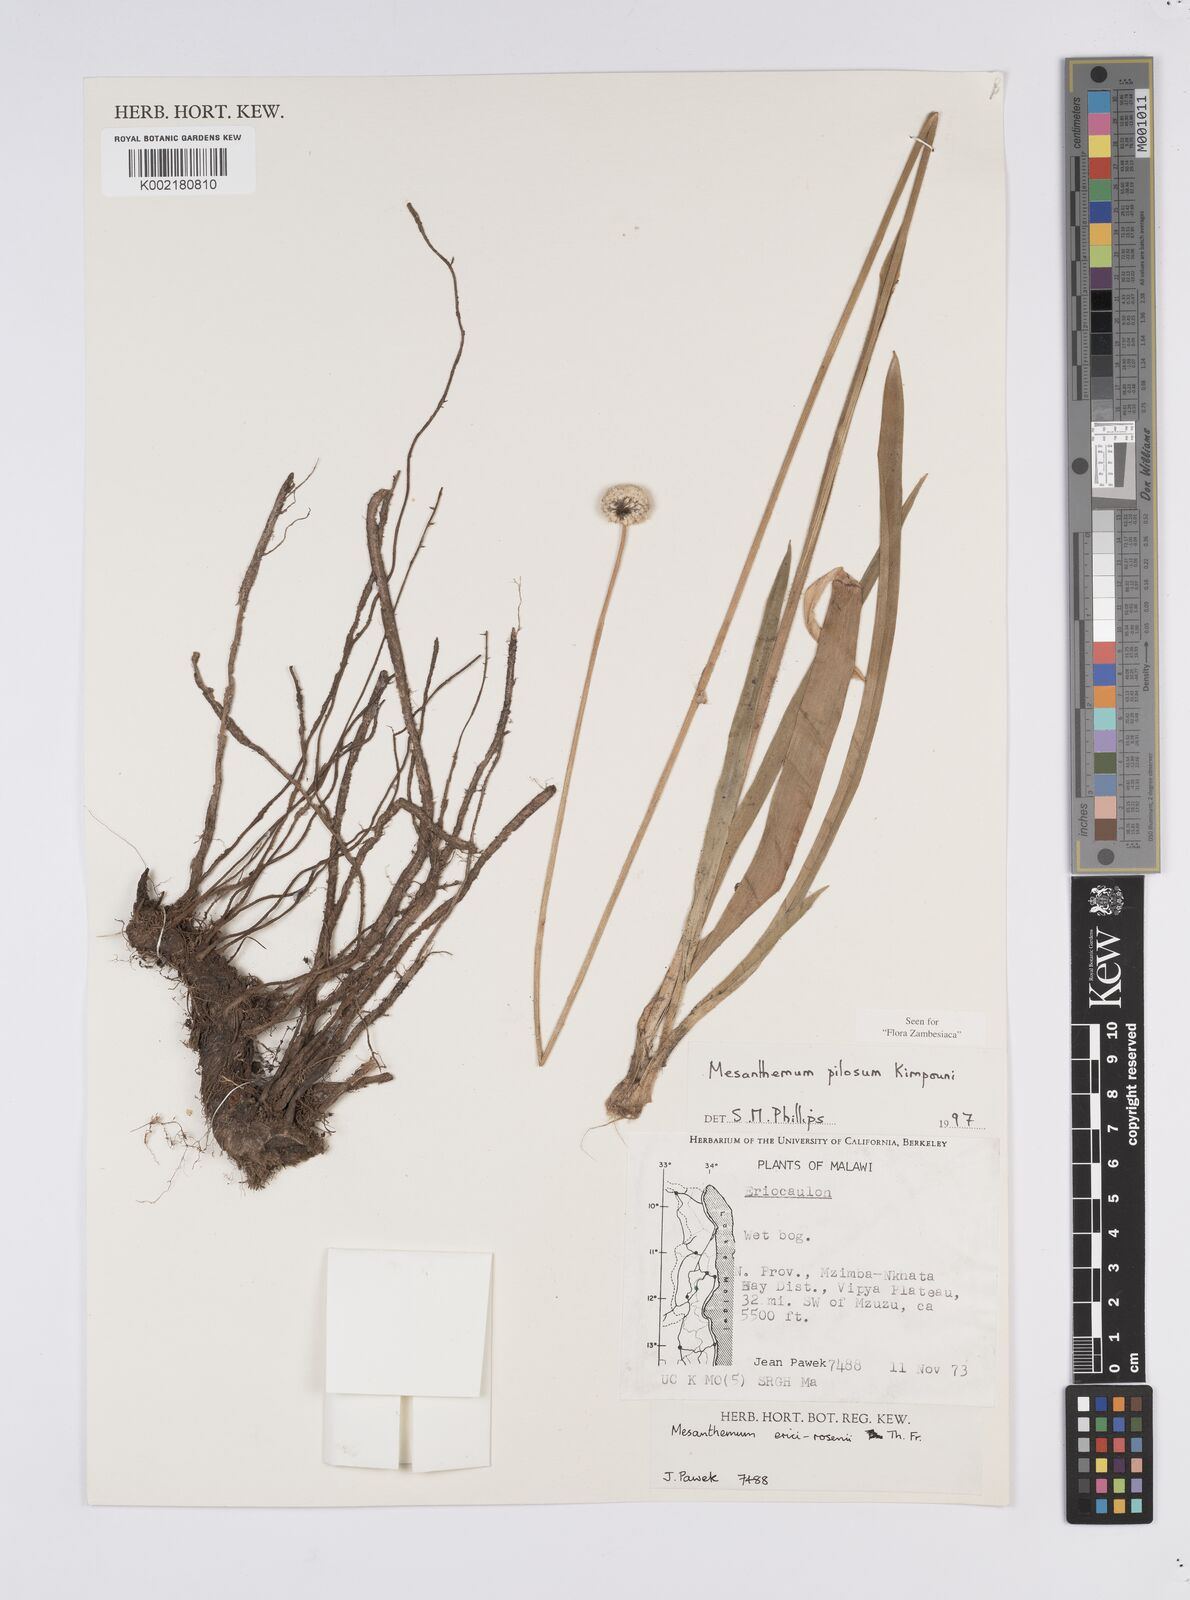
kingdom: Plantae
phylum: Tracheophyta
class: Liliopsida
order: Poales
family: Eriocaulaceae
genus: Mesanthemum
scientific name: Mesanthemum pilosum
